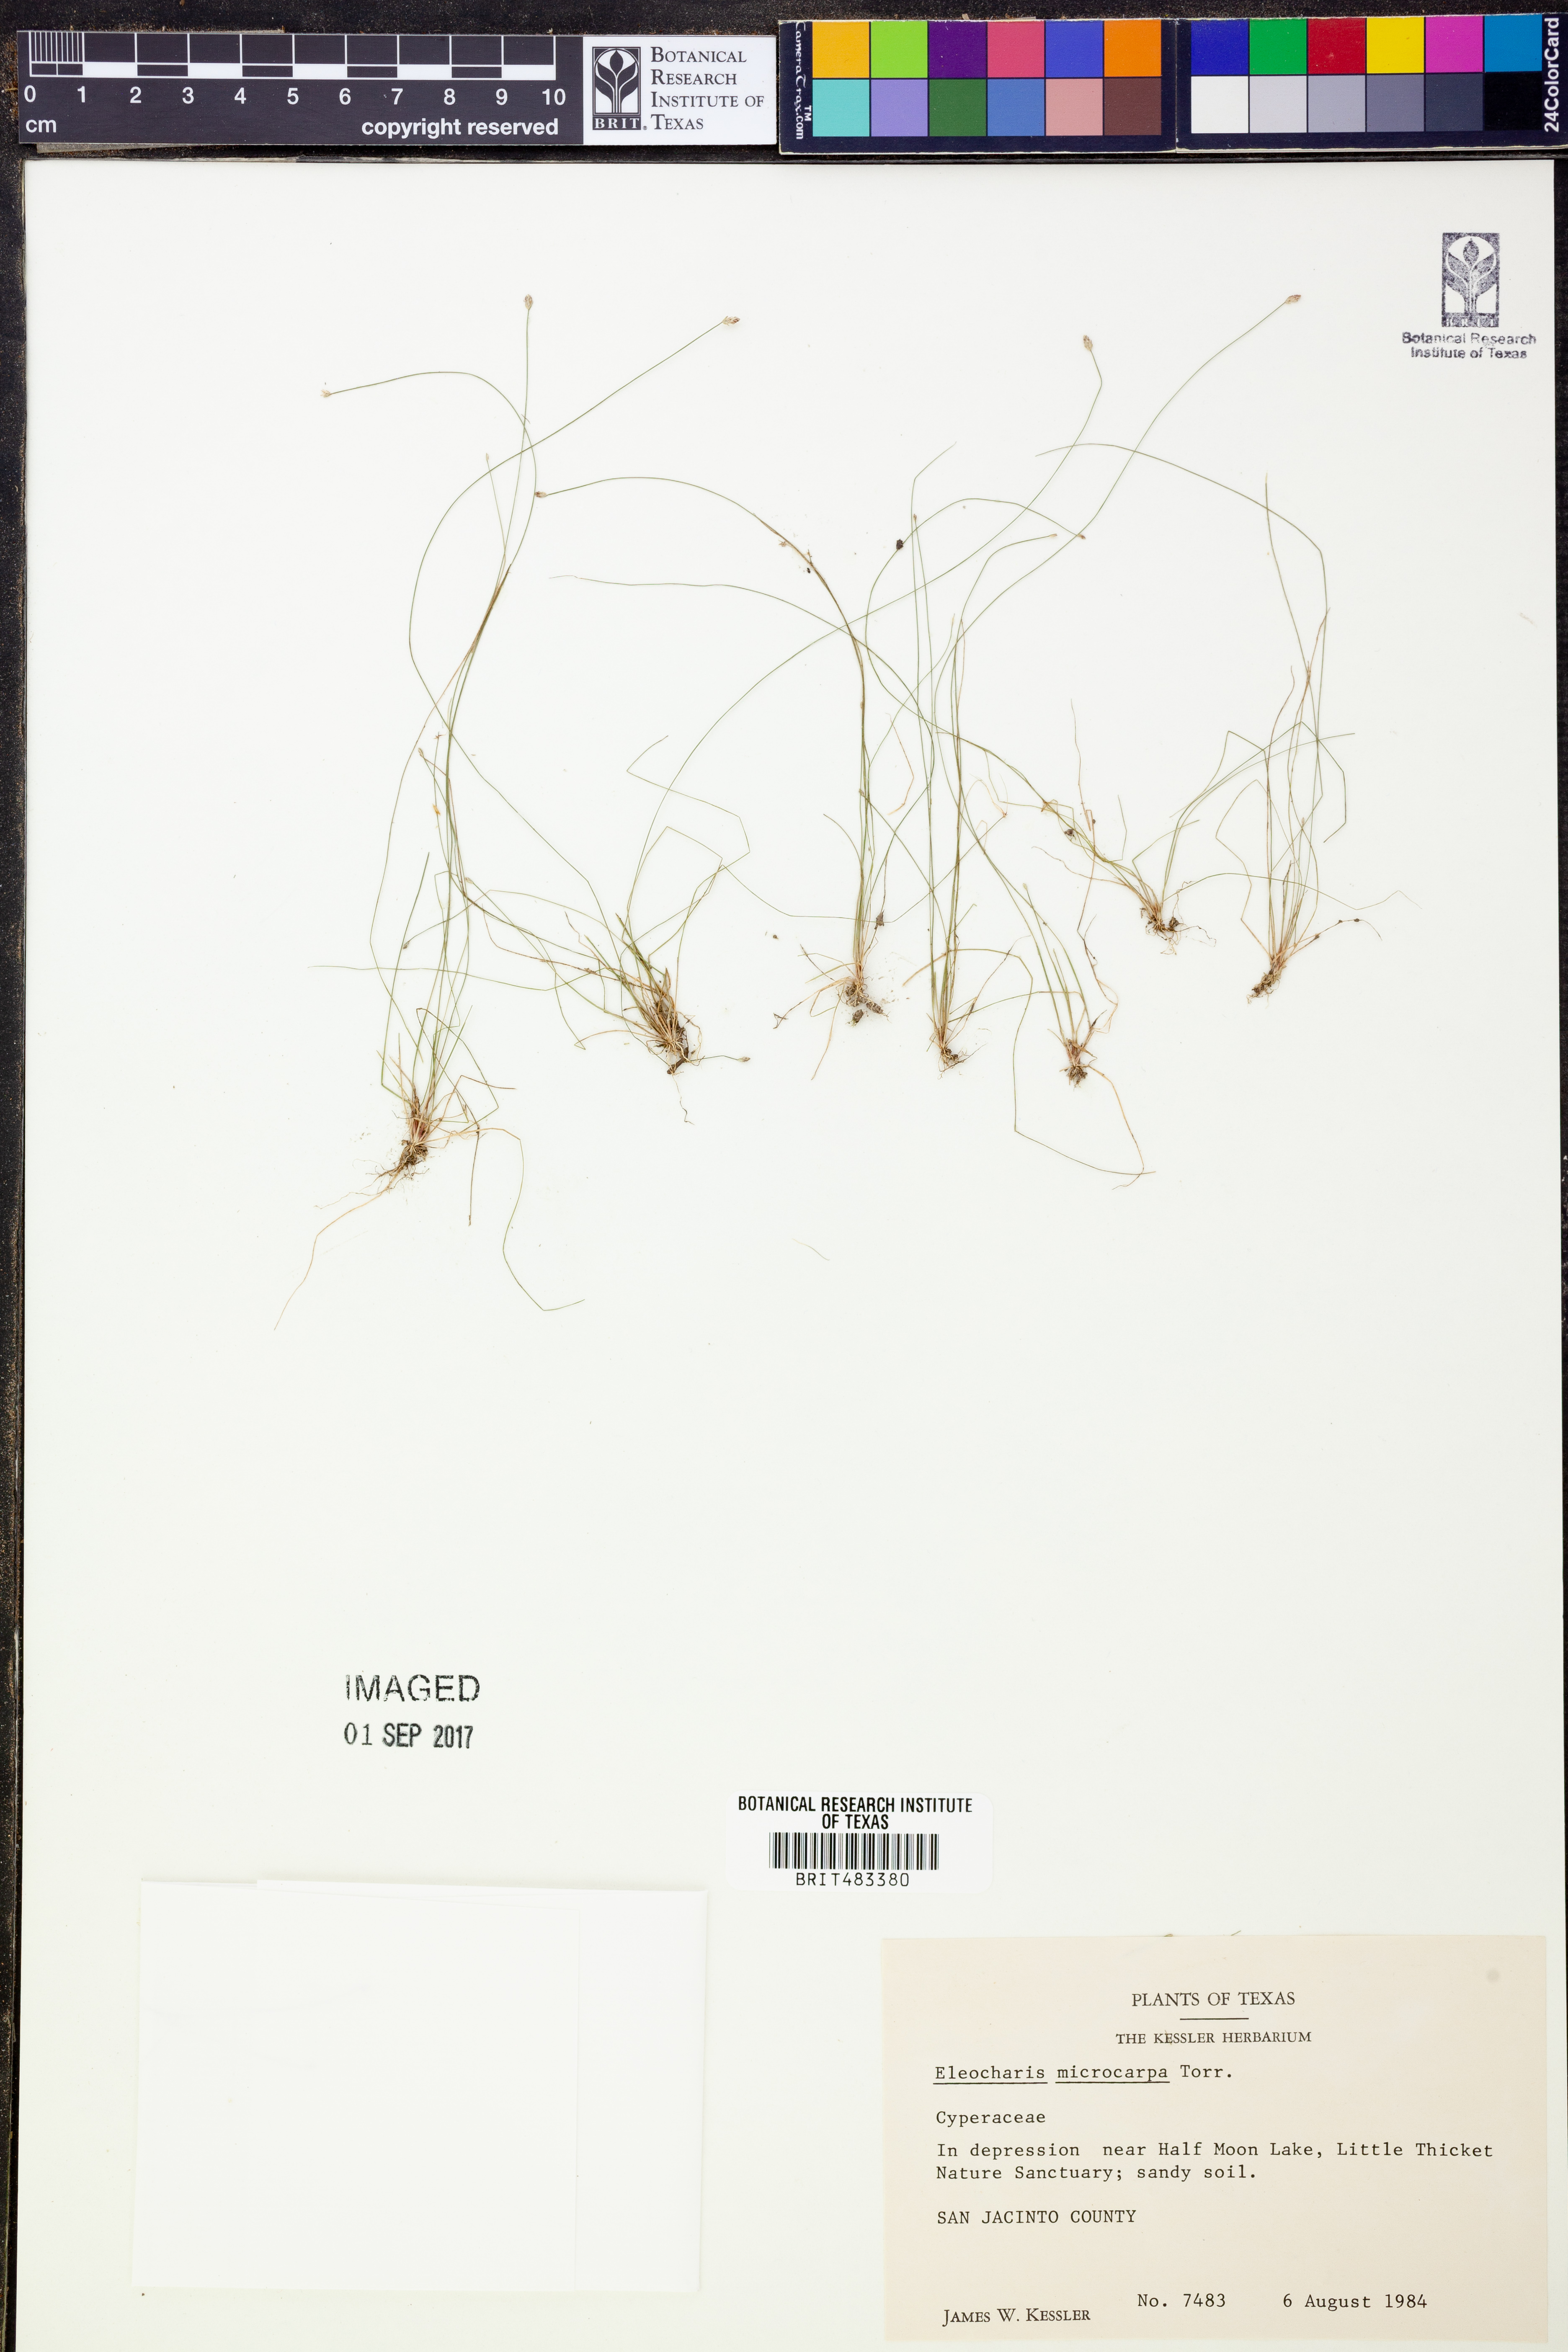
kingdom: Plantae
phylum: Tracheophyta
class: Liliopsida
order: Poales
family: Cyperaceae
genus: Eleocharis
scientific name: Eleocharis microcarpa
